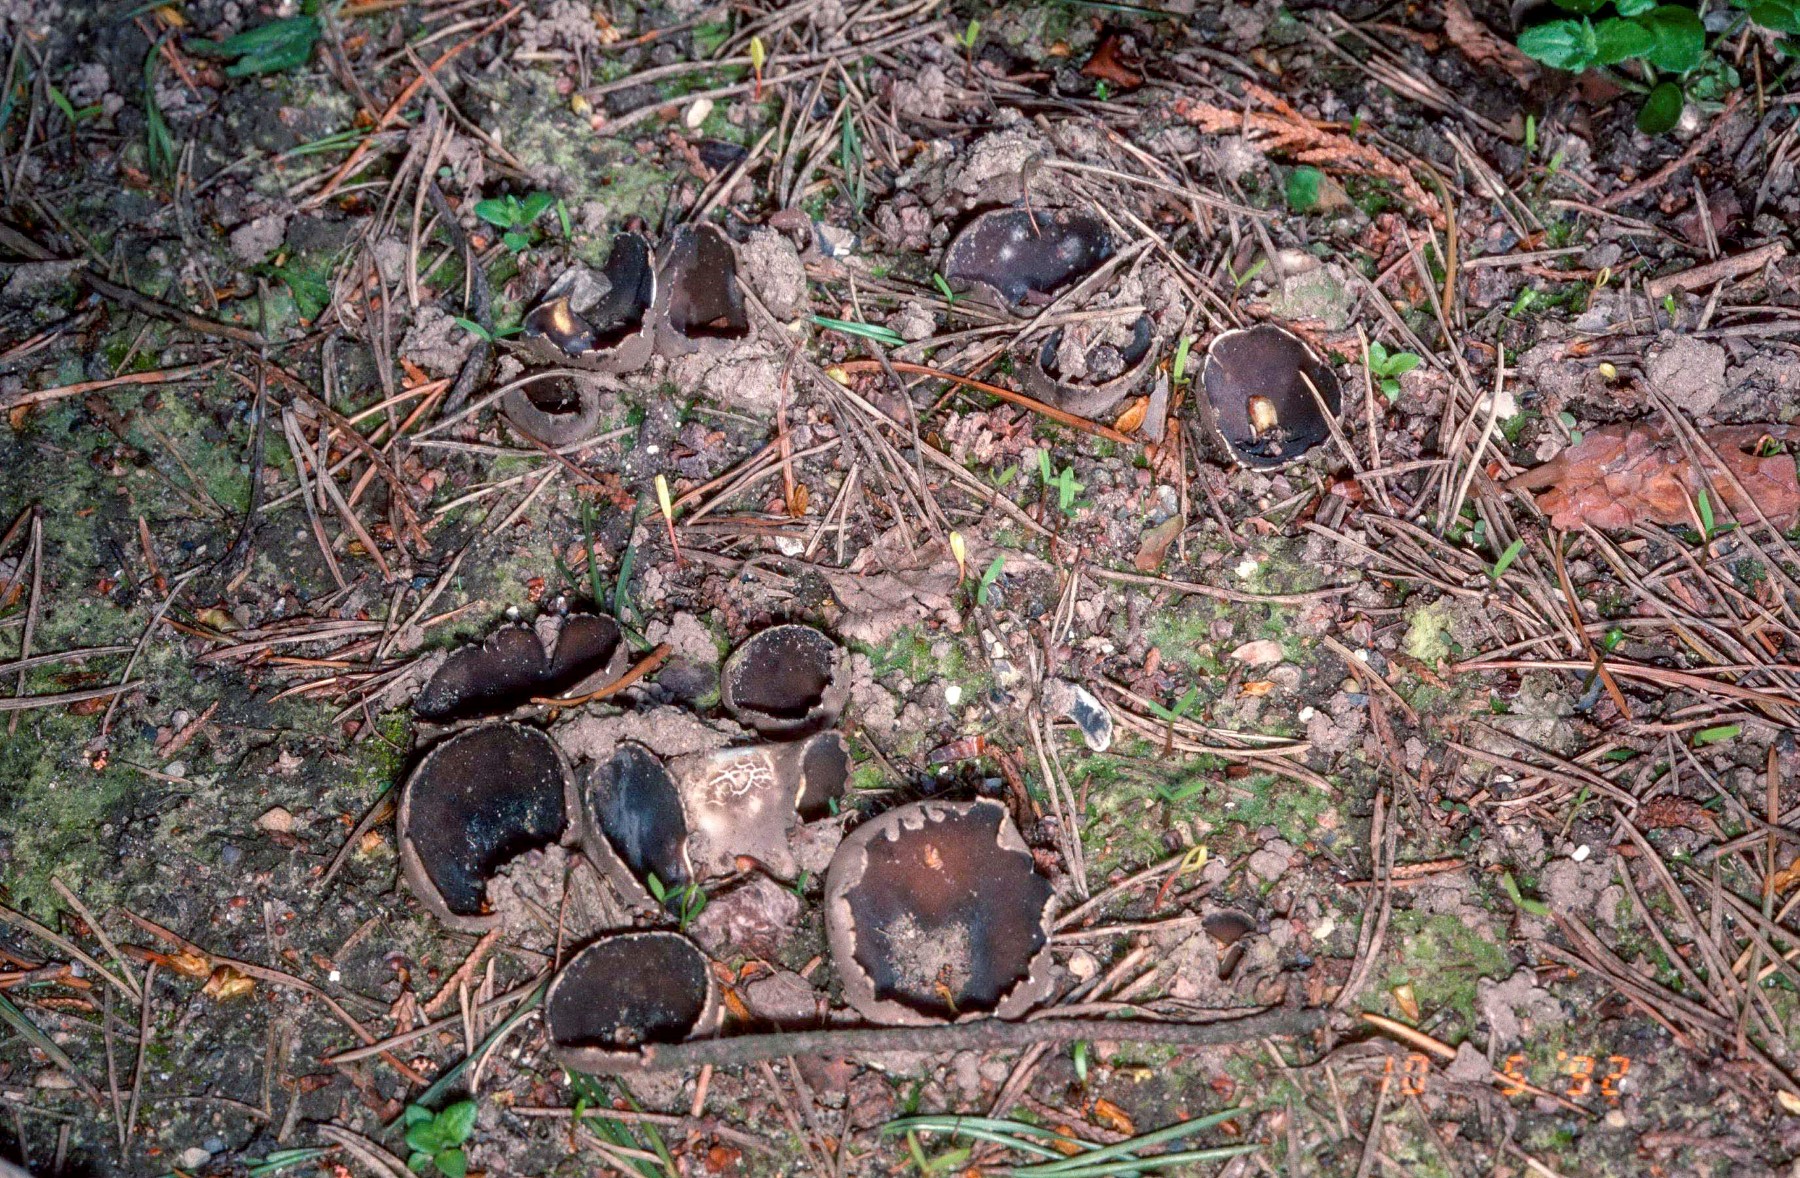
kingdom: Fungi
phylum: Ascomycota
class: Pezizomycetes
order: Pezizales
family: Helvellaceae
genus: Dissingia
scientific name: Dissingia leucomelaena
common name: sorthvid foldhat
